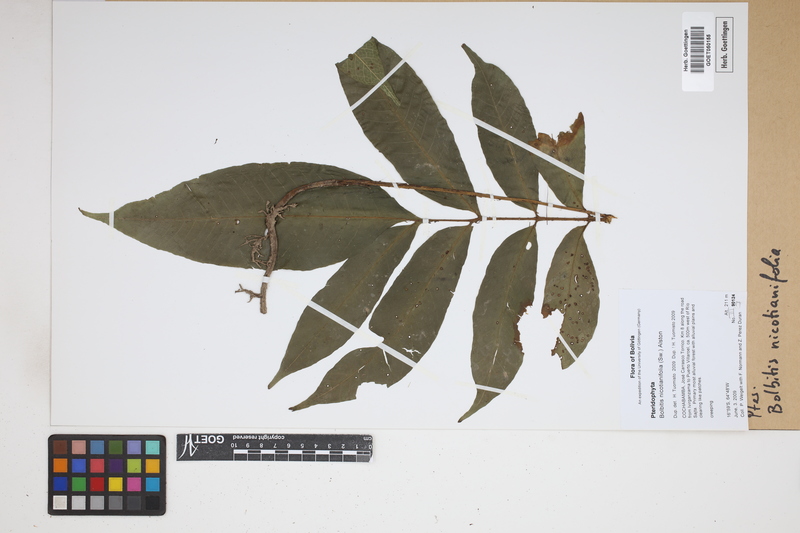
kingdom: Plantae
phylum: Tracheophyta
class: Polypodiopsida
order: Polypodiales
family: Dryopteridaceae
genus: Mickelia
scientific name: Mickelia nicotianifolia
